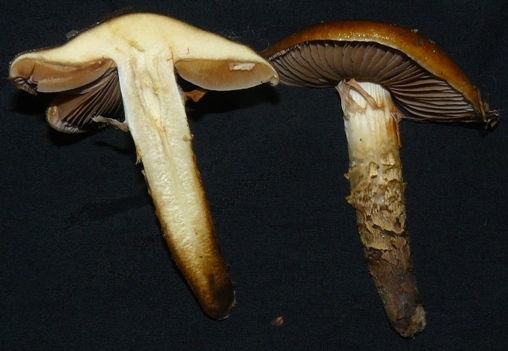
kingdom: Fungi
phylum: Basidiomycota
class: Agaricomycetes
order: Agaricales
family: Cortinariaceae
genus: Cortinarius
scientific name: Cortinarius trivialis
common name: brunslimet slørhat
